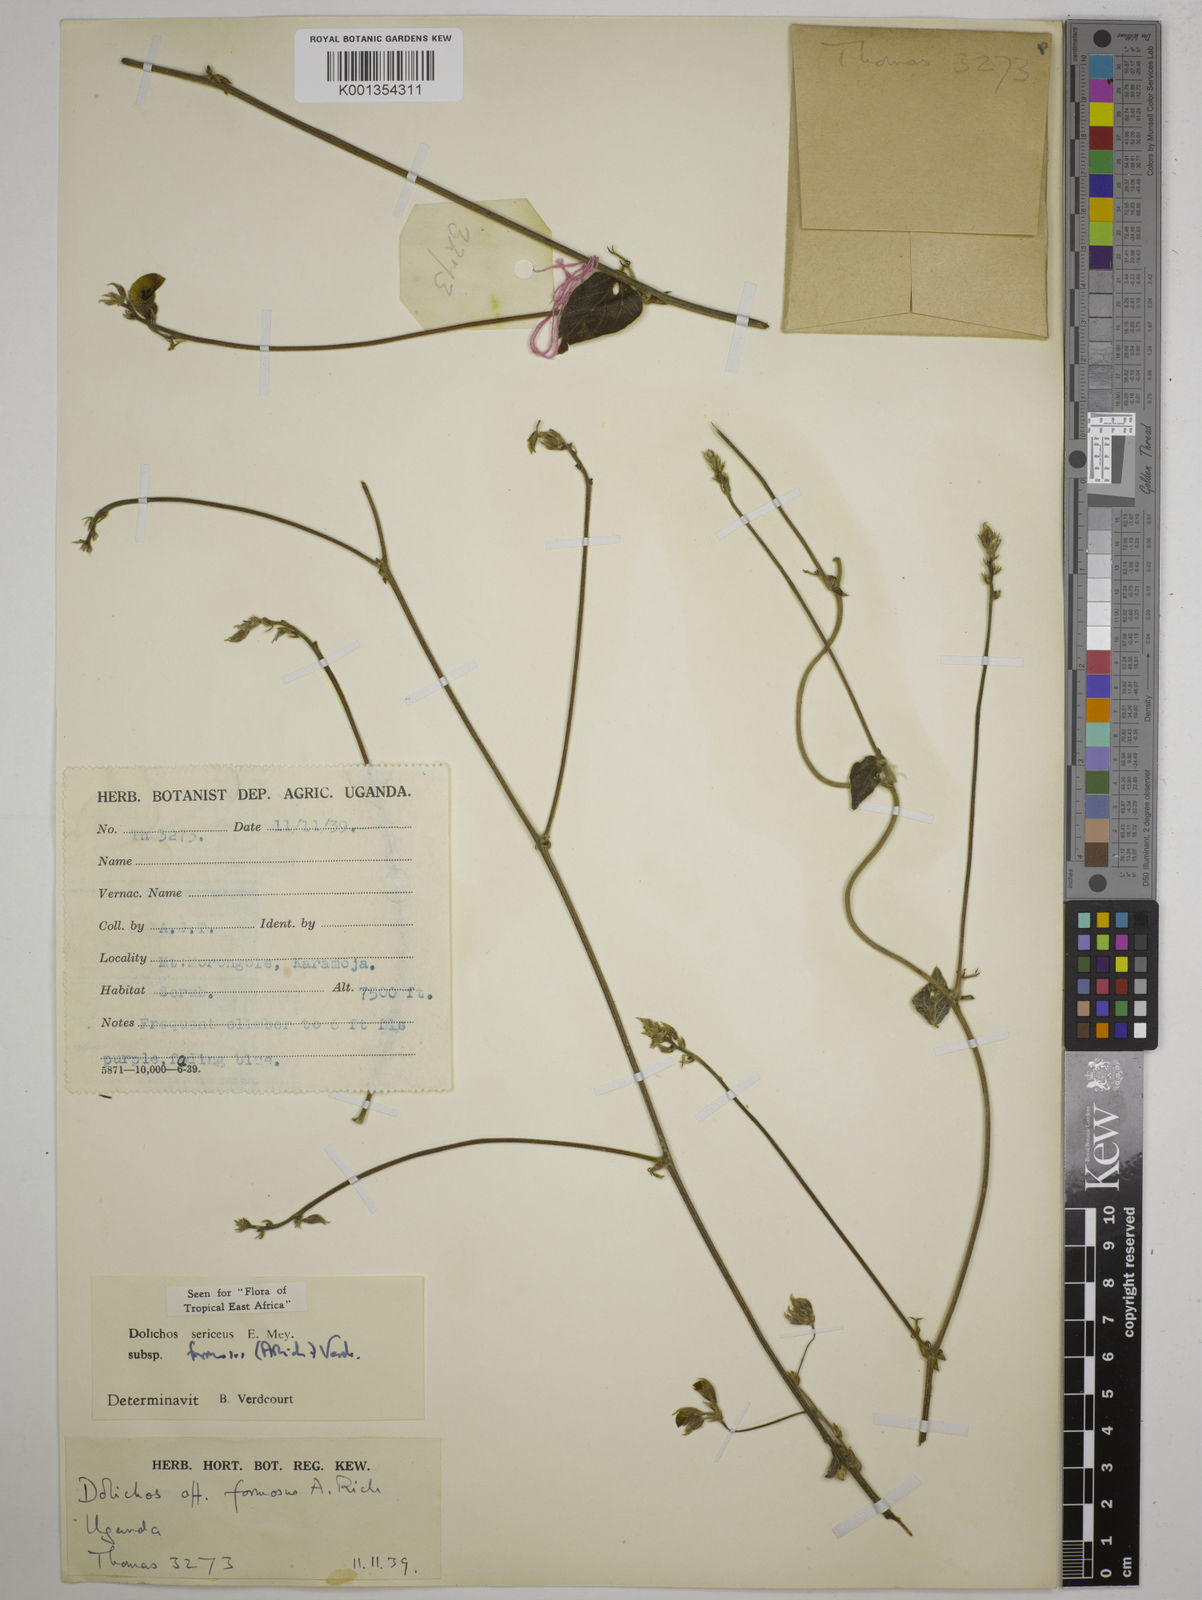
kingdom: Plantae
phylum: Tracheophyta
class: Magnoliopsida
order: Fabales
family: Fabaceae
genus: Dolichos
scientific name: Dolichos
